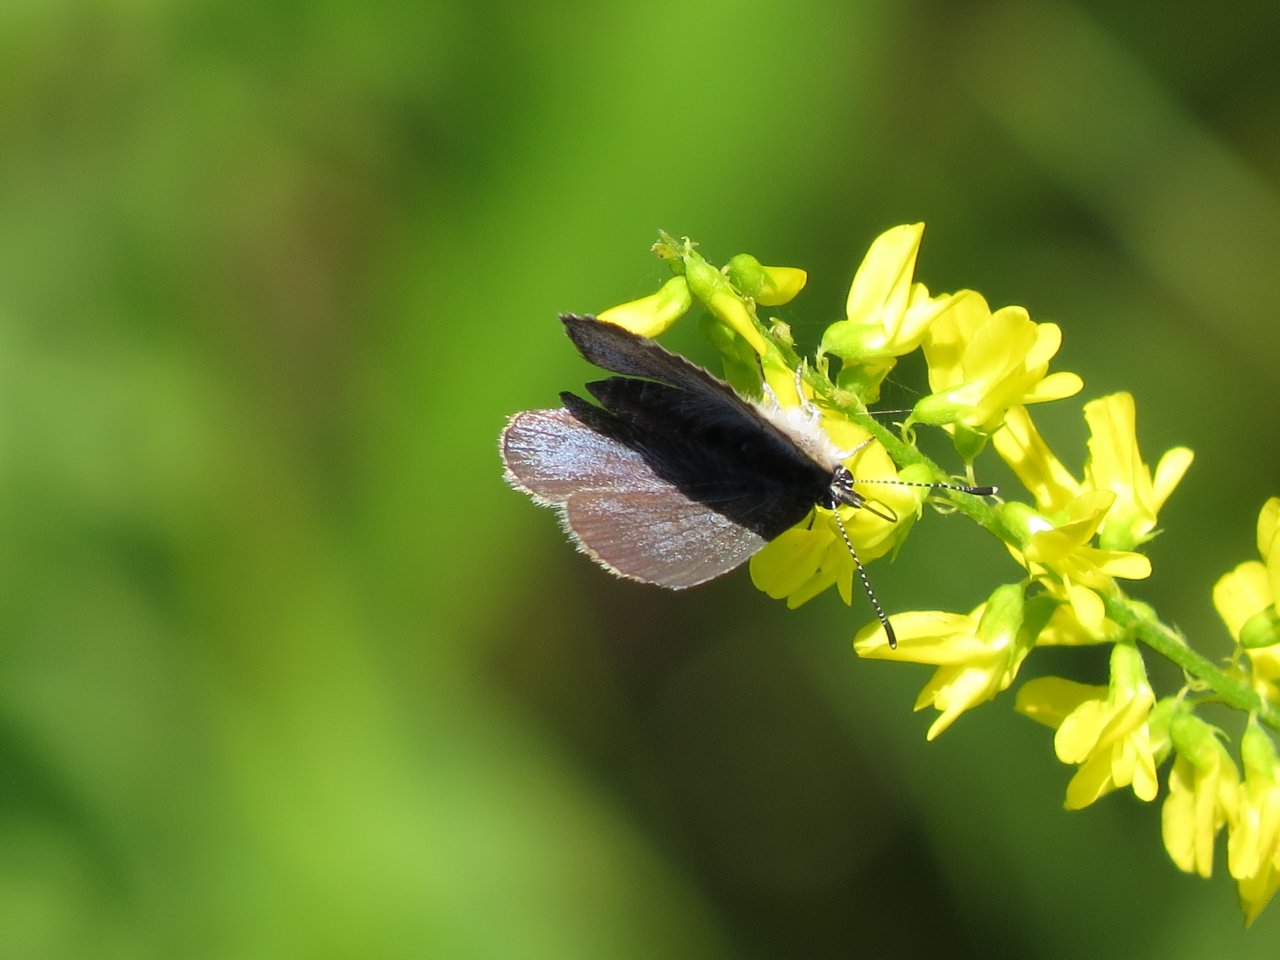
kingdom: Animalia
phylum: Arthropoda
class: Insecta
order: Lepidoptera
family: Lycaenidae
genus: Glaucopsyche
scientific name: Glaucopsyche lygdamus
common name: Silvery Blue
